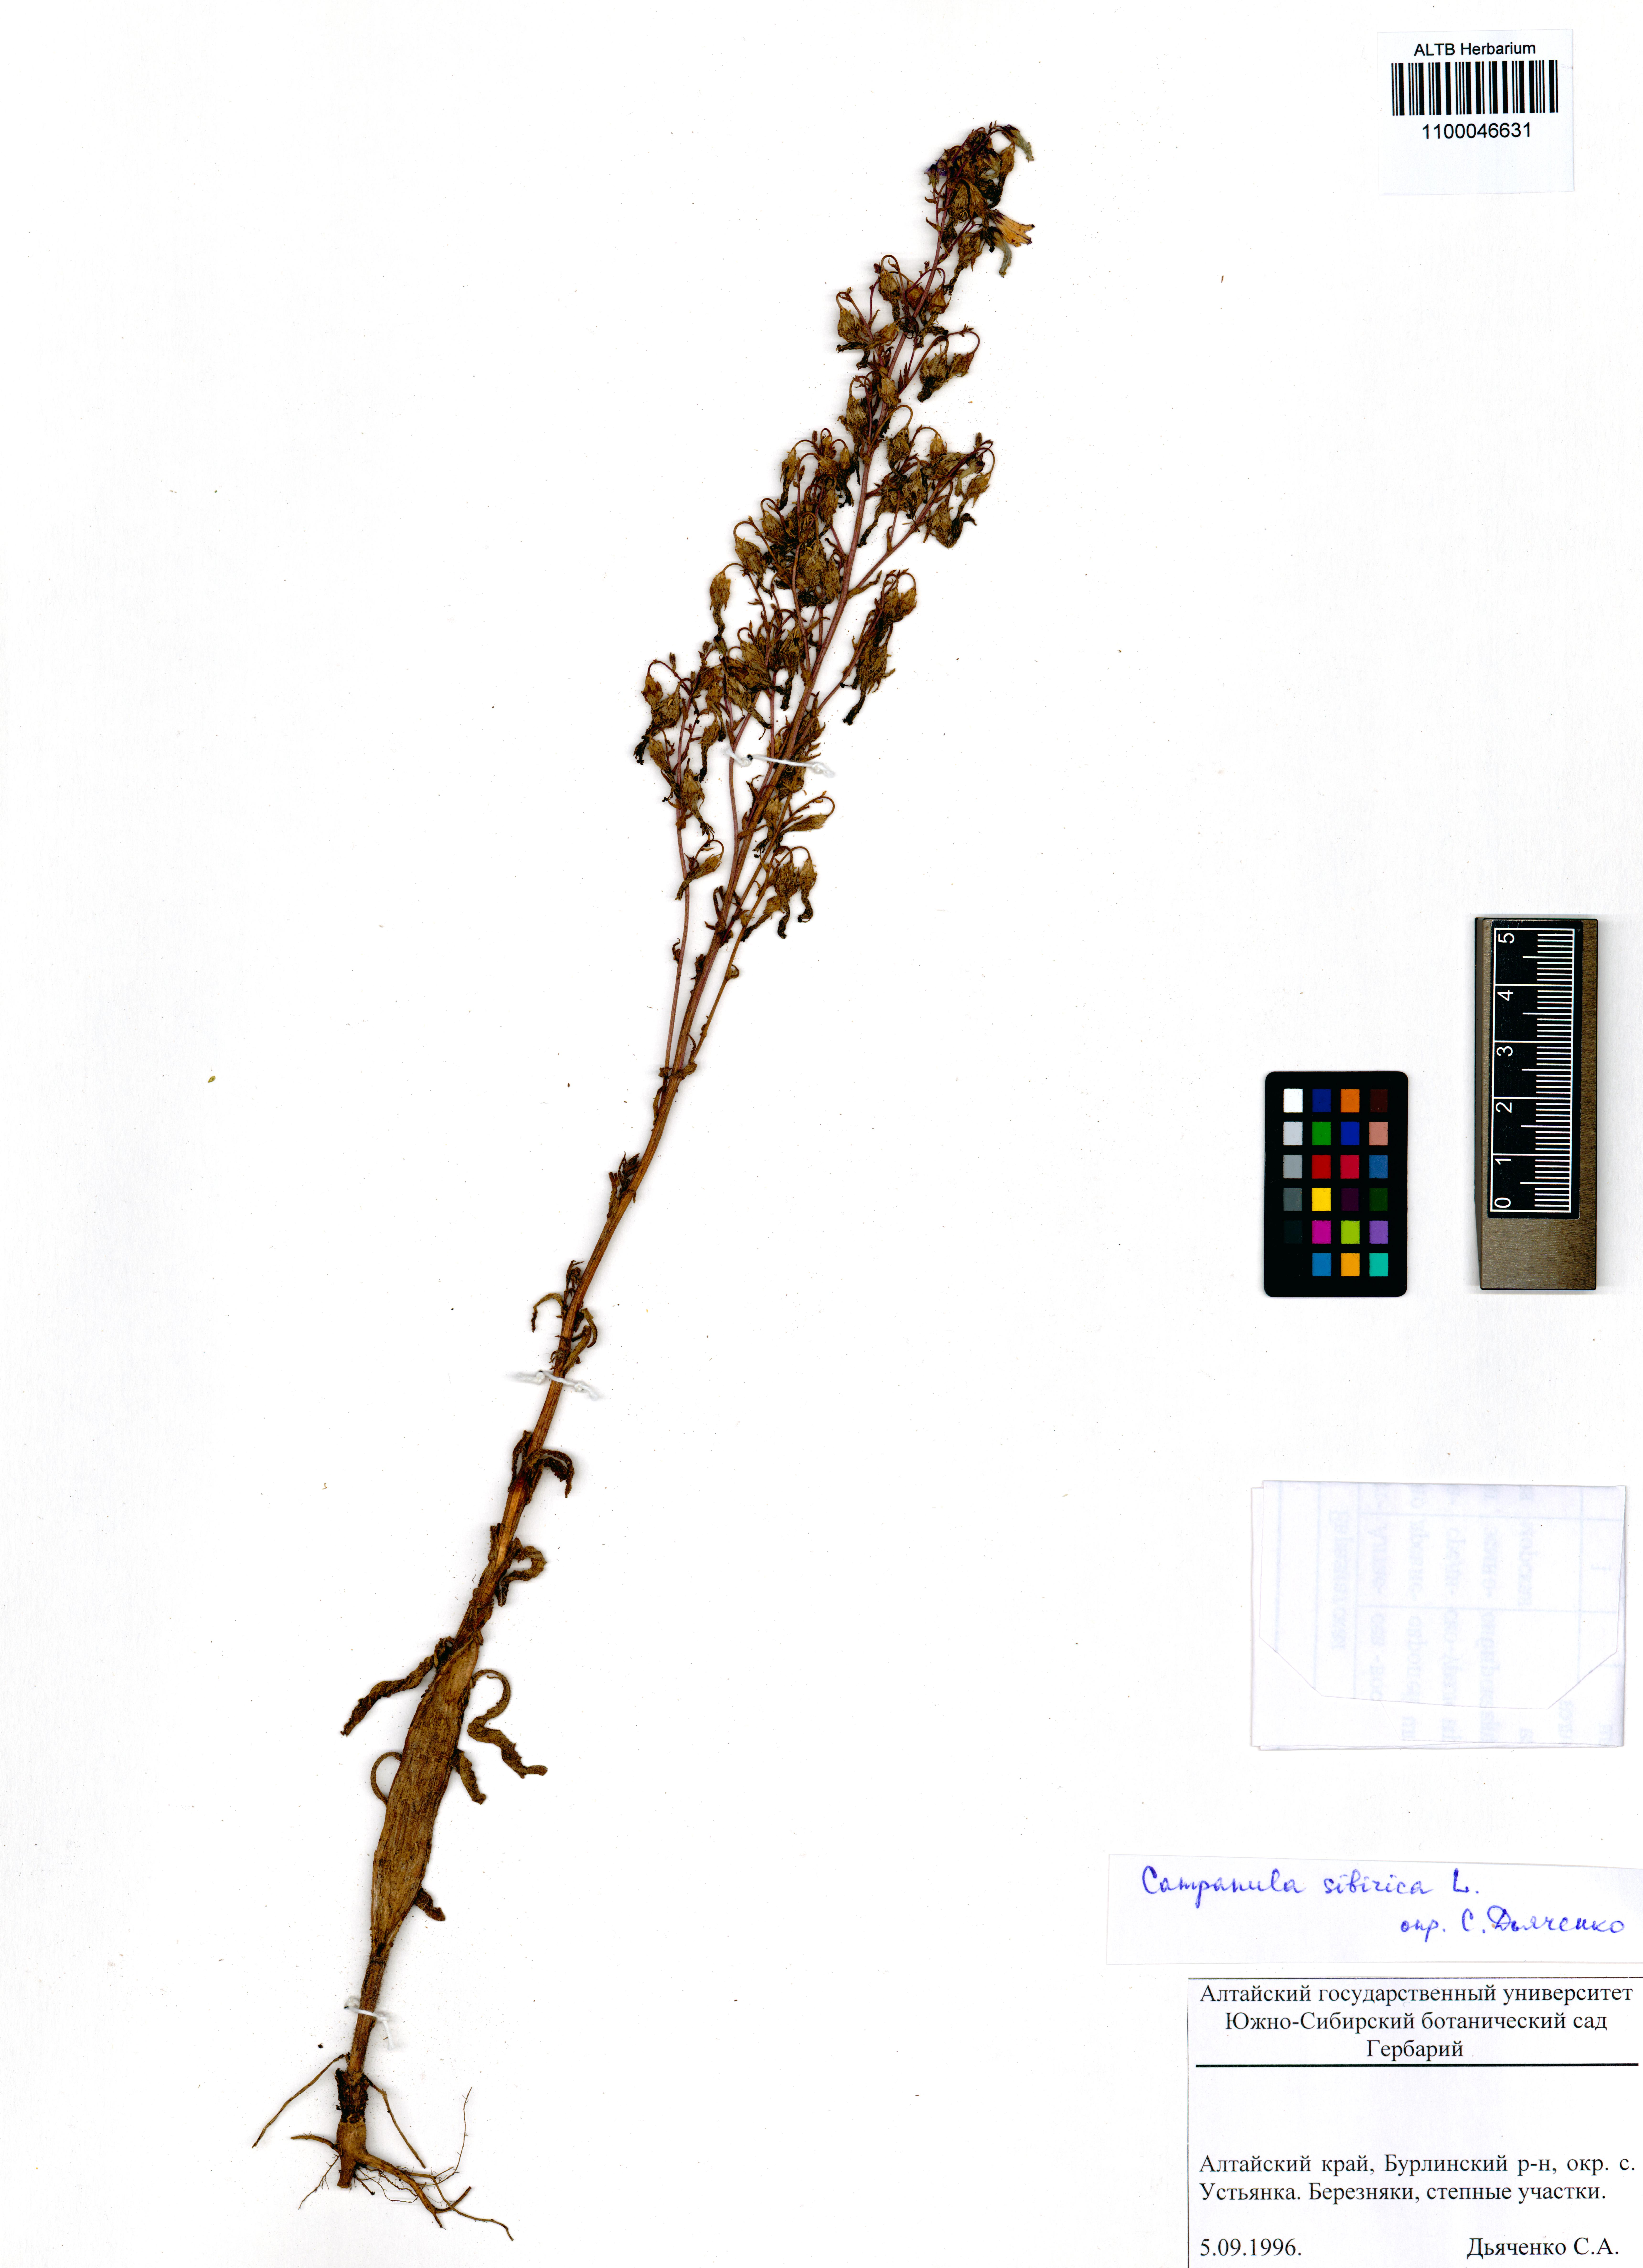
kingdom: Plantae
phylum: Tracheophyta
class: Magnoliopsida
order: Asterales
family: Campanulaceae
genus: Campanula
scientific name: Campanula sibirica
